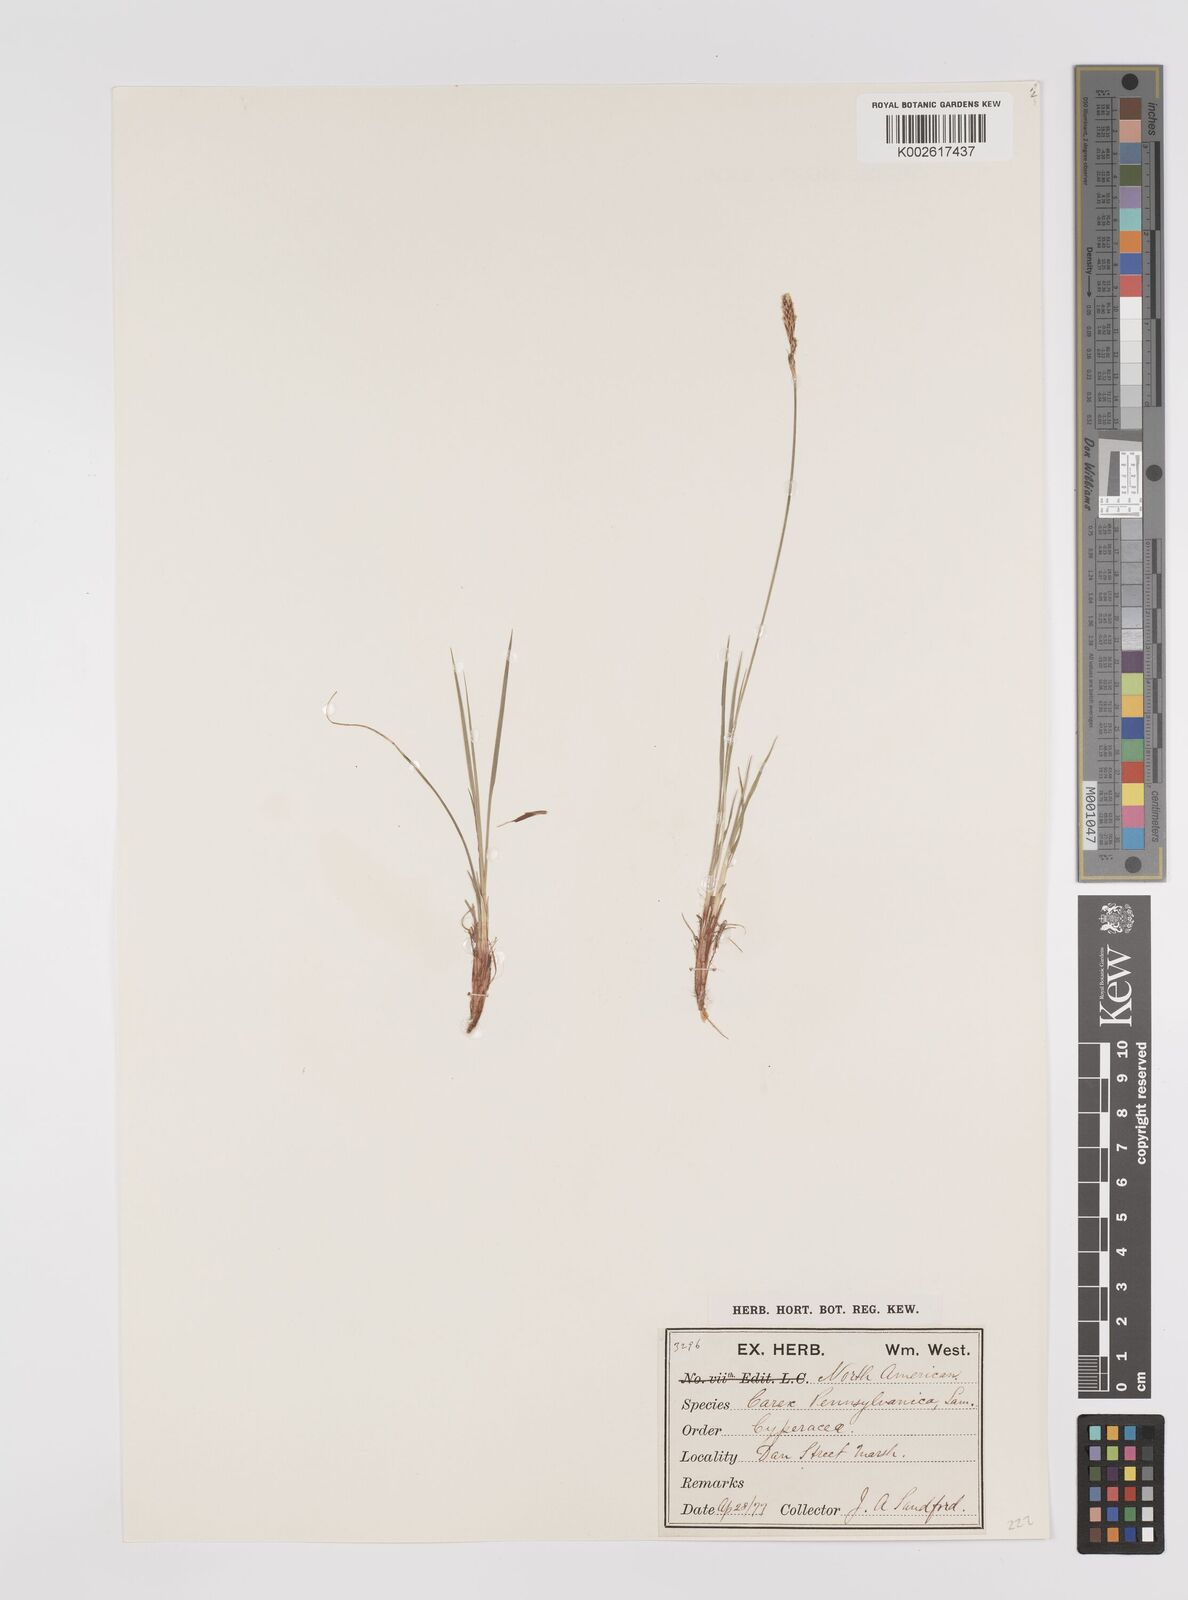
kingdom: Plantae
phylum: Tracheophyta
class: Liliopsida
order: Poales
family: Cyperaceae
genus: Carex
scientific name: Carex inops
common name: Long-stolon sedge
